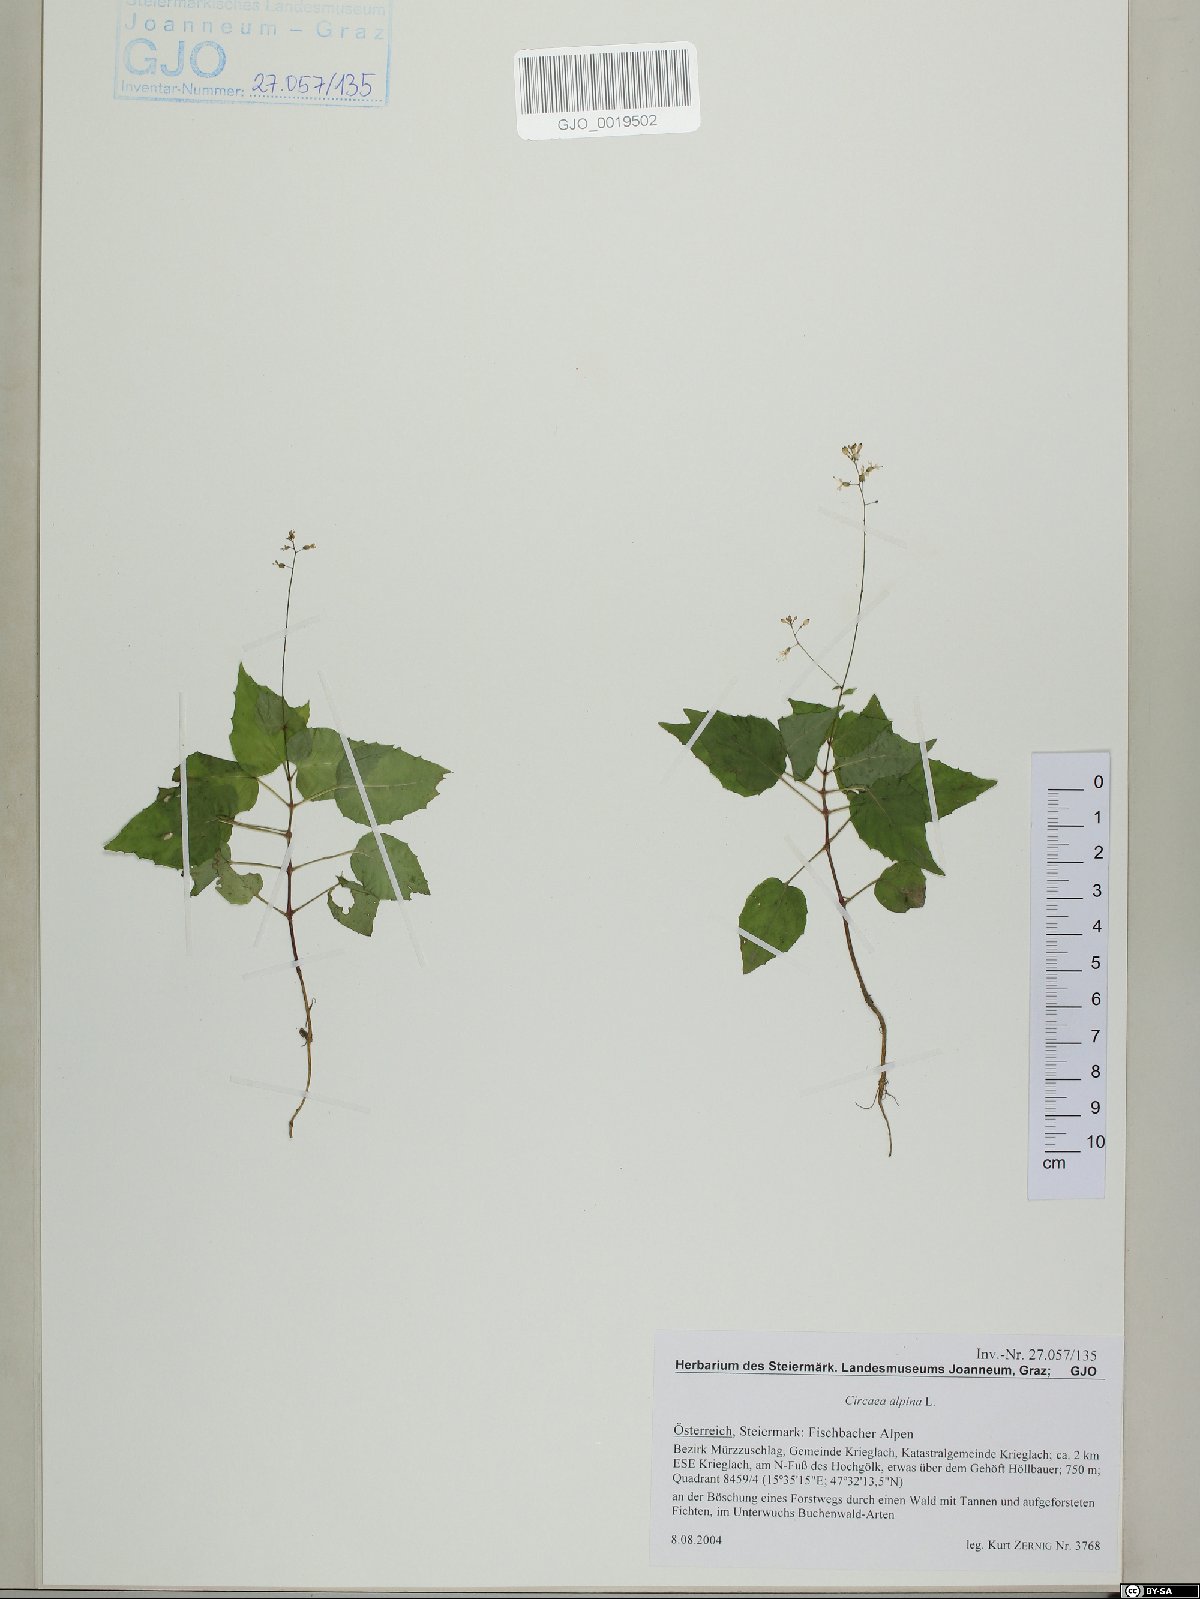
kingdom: Plantae
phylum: Tracheophyta
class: Magnoliopsida
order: Myrtales
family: Onagraceae
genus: Circaea
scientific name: Circaea alpina
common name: Alpine enchanter's-nightshade
